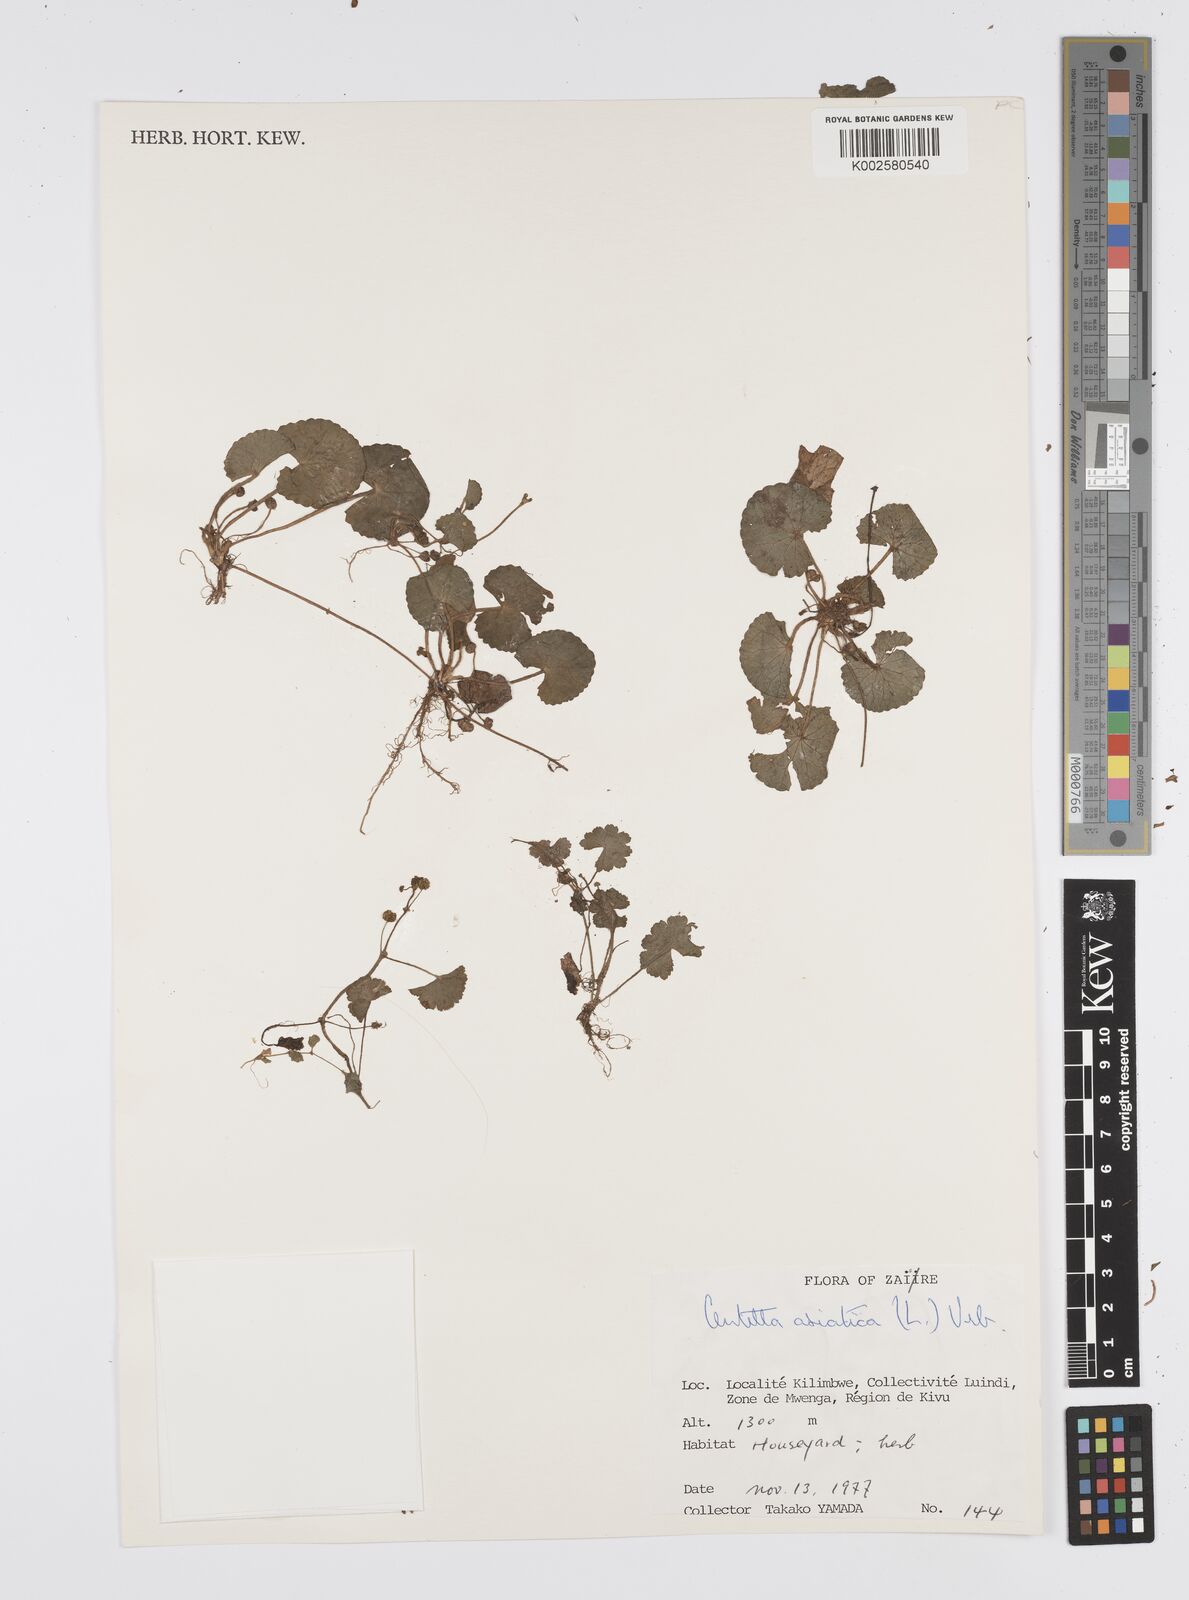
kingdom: Plantae
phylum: Tracheophyta
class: Magnoliopsida
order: Apiales
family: Apiaceae
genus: Centella
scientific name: Centella asiatica
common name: Spadeleaf
